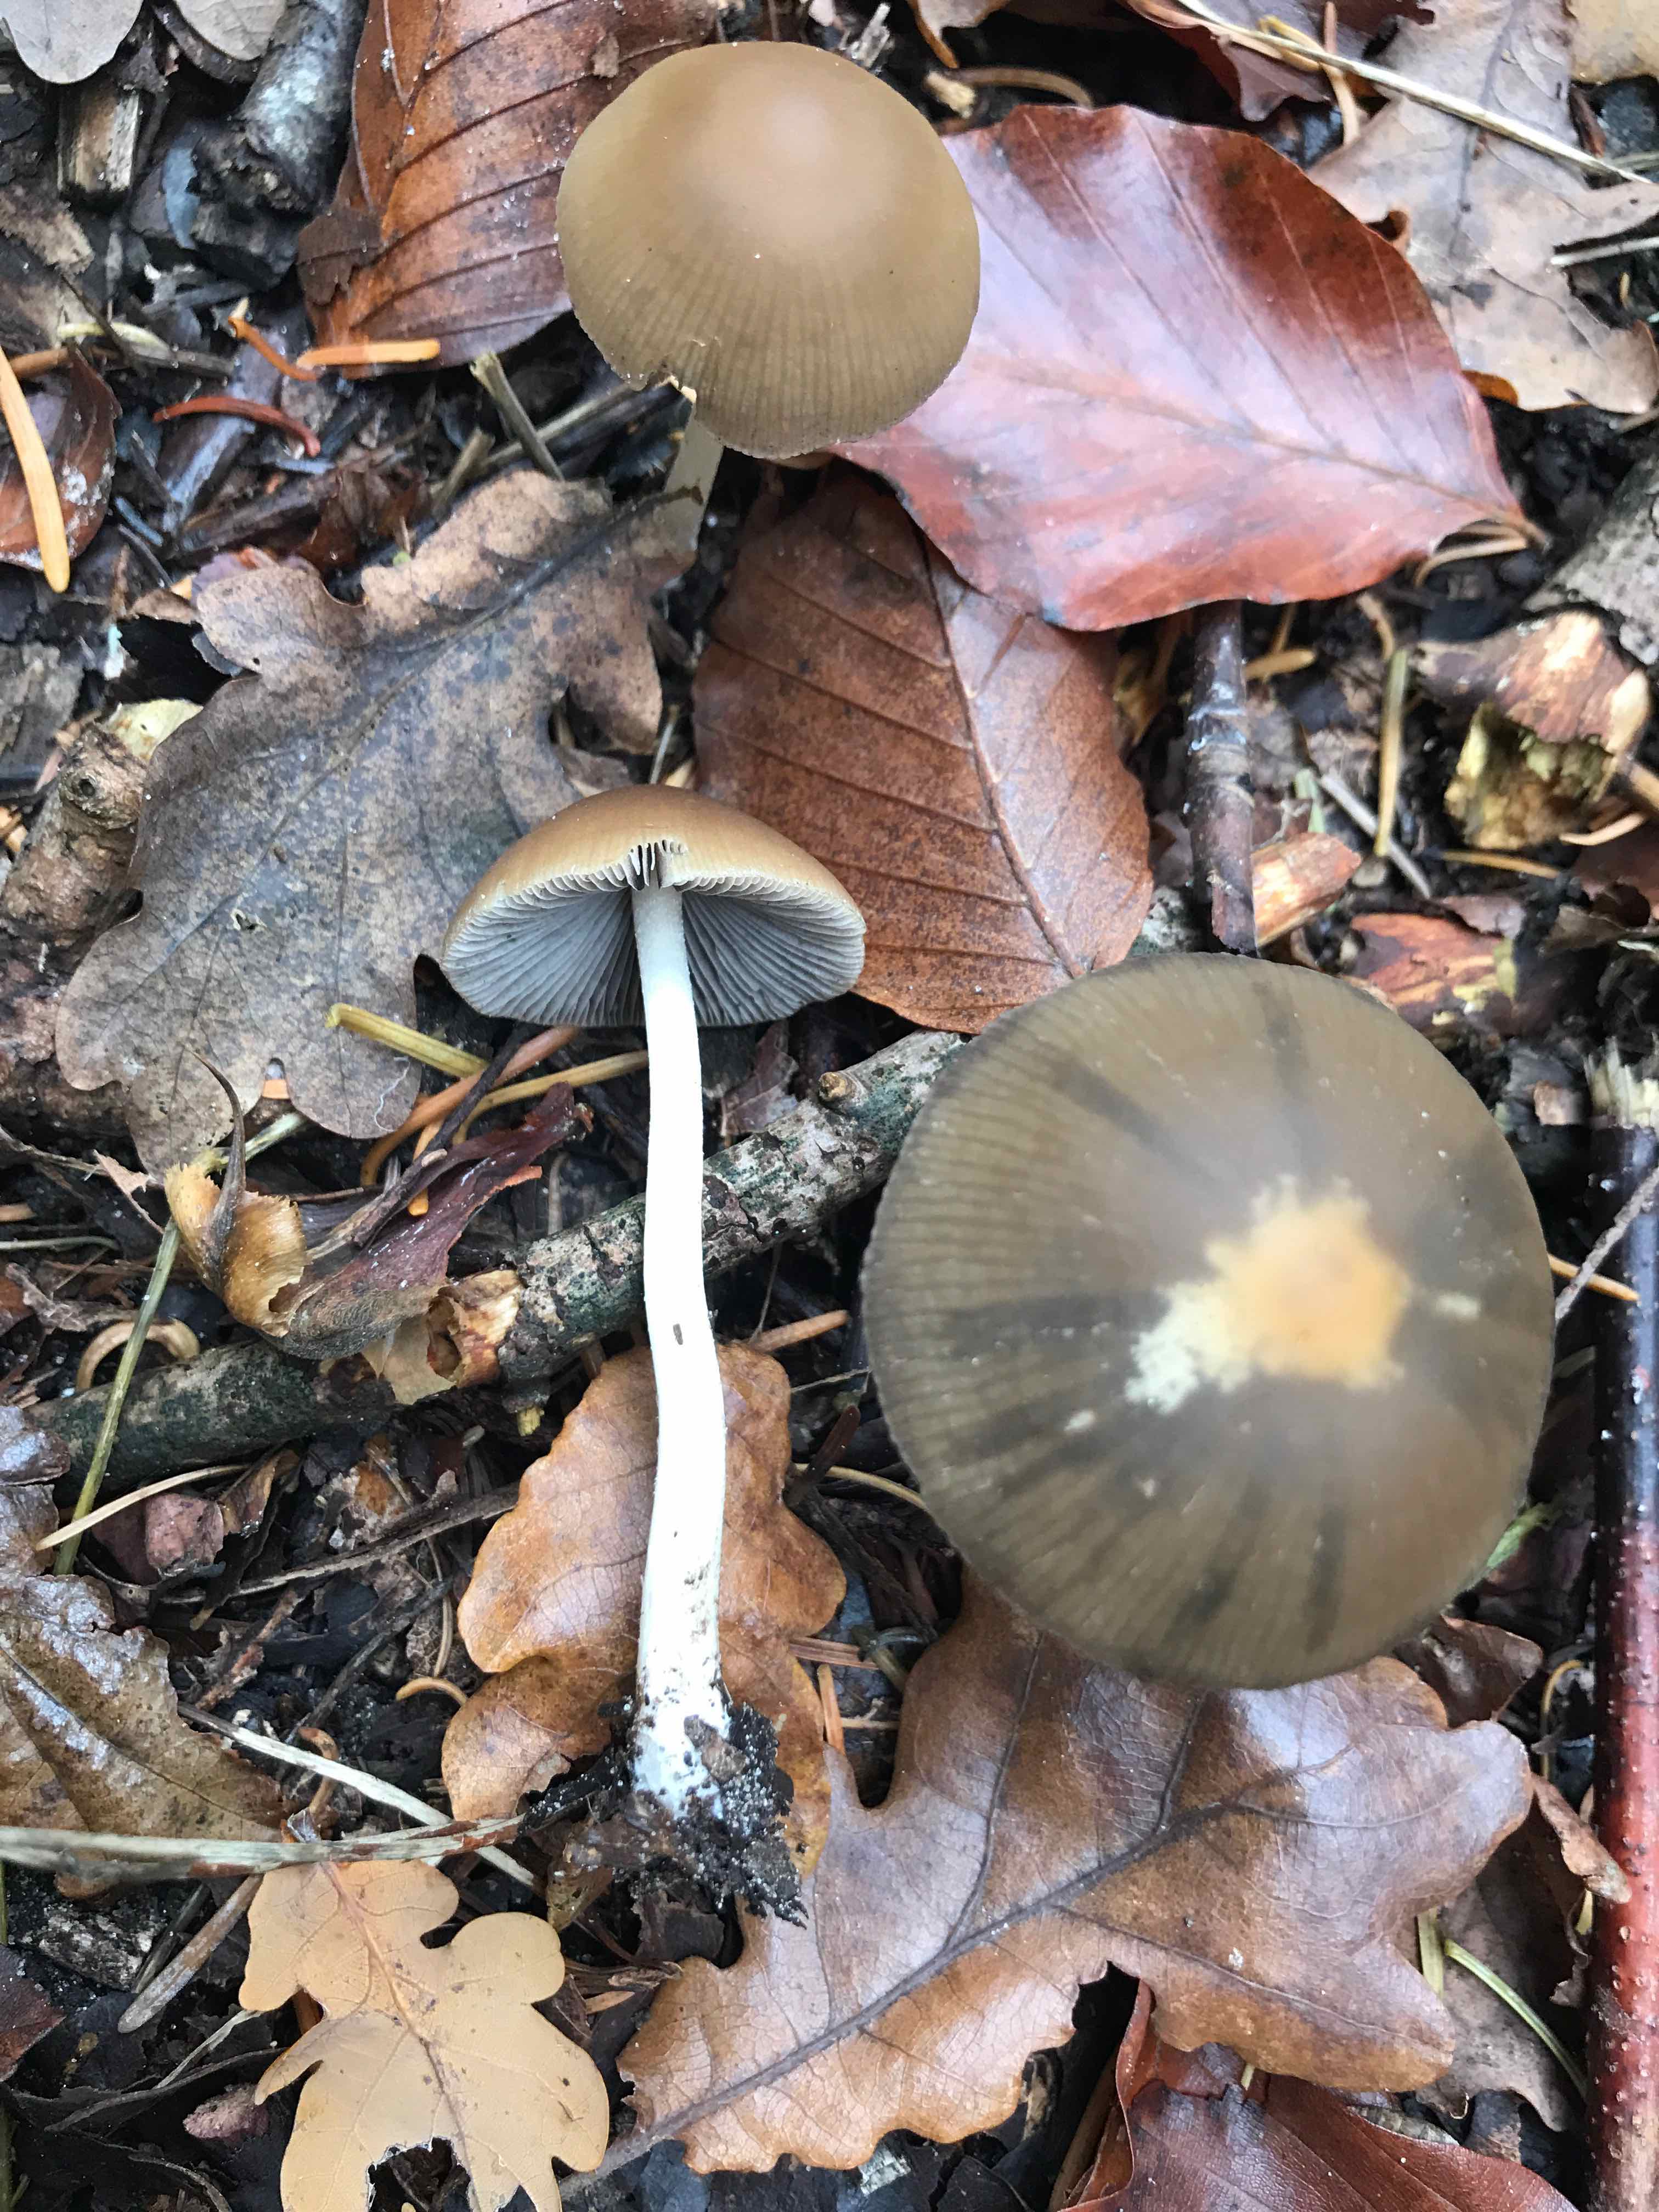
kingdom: Fungi
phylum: Basidiomycota
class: Agaricomycetes
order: Agaricales
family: Psathyrellaceae
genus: Psathyrella
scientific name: Psathyrella
